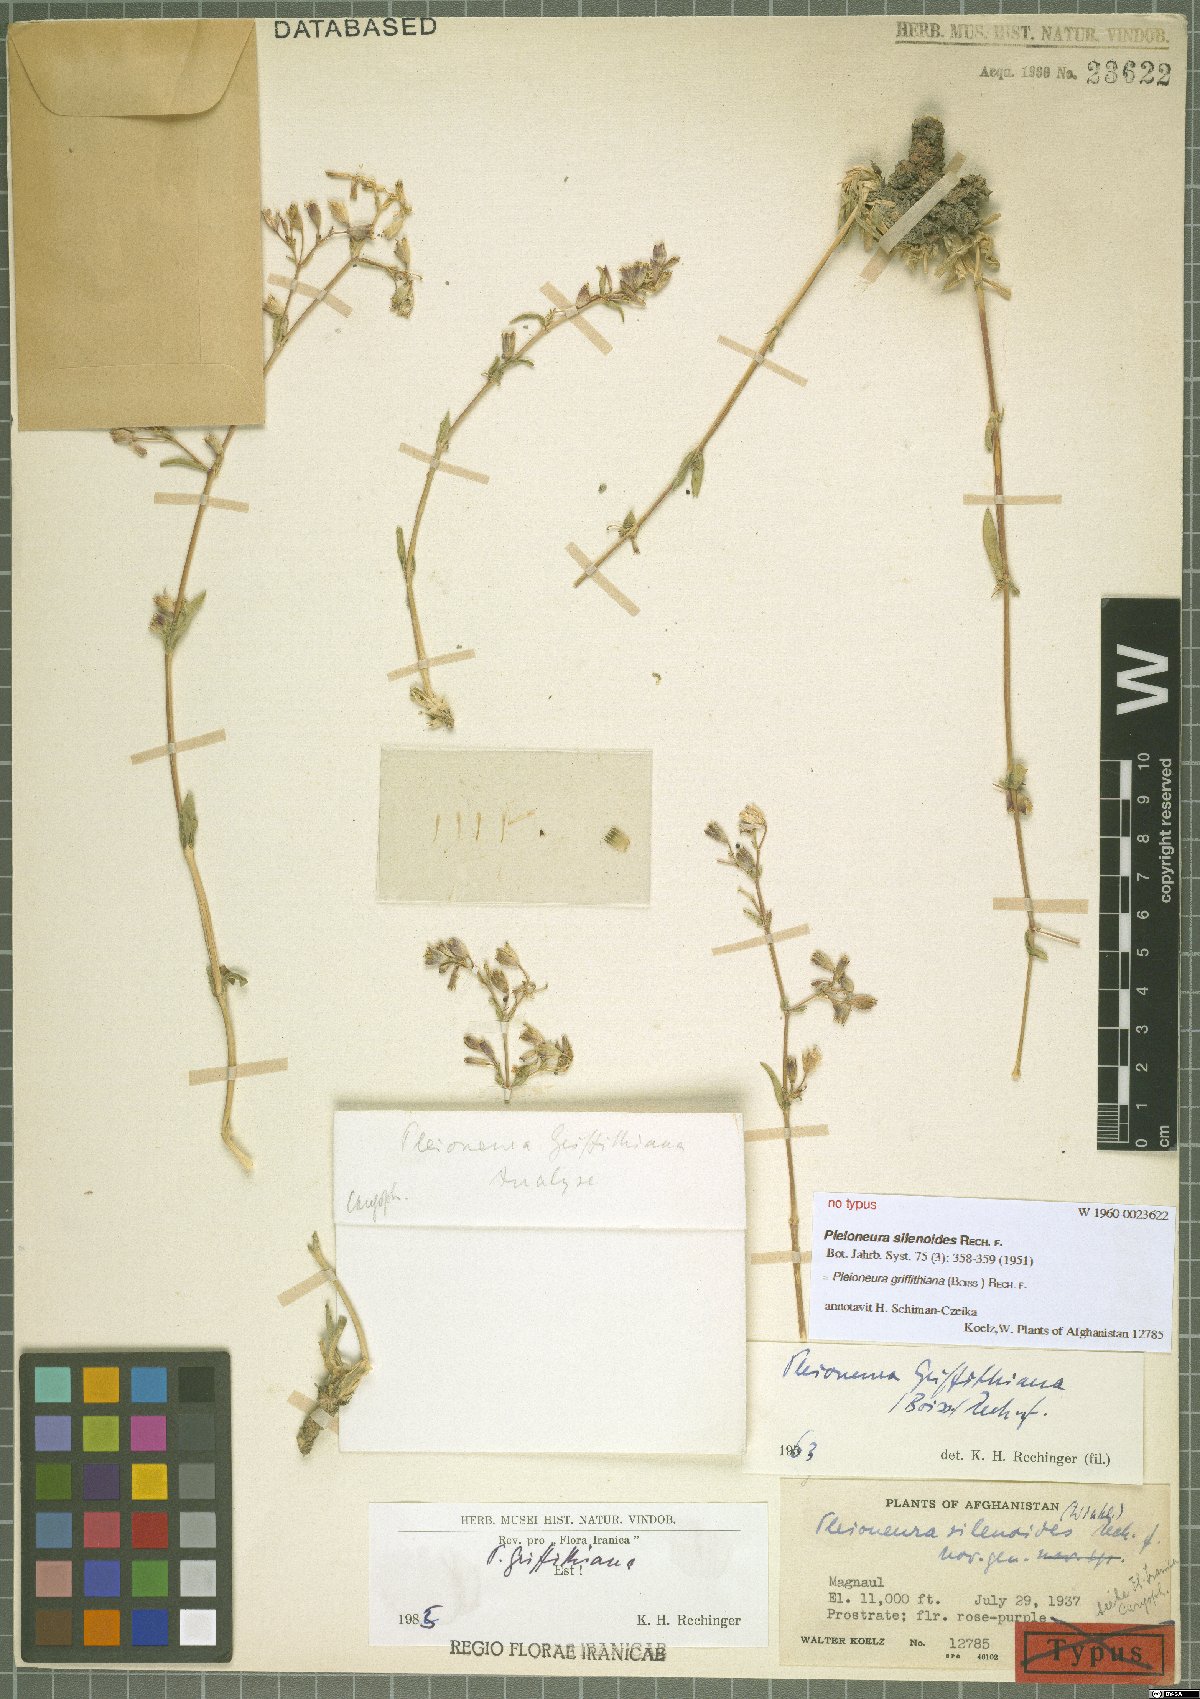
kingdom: Plantae
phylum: Tracheophyta
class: Magnoliopsida
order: Caryophyllales
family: Caryophyllaceae
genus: Saponaria
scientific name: Saponaria griffithiana
